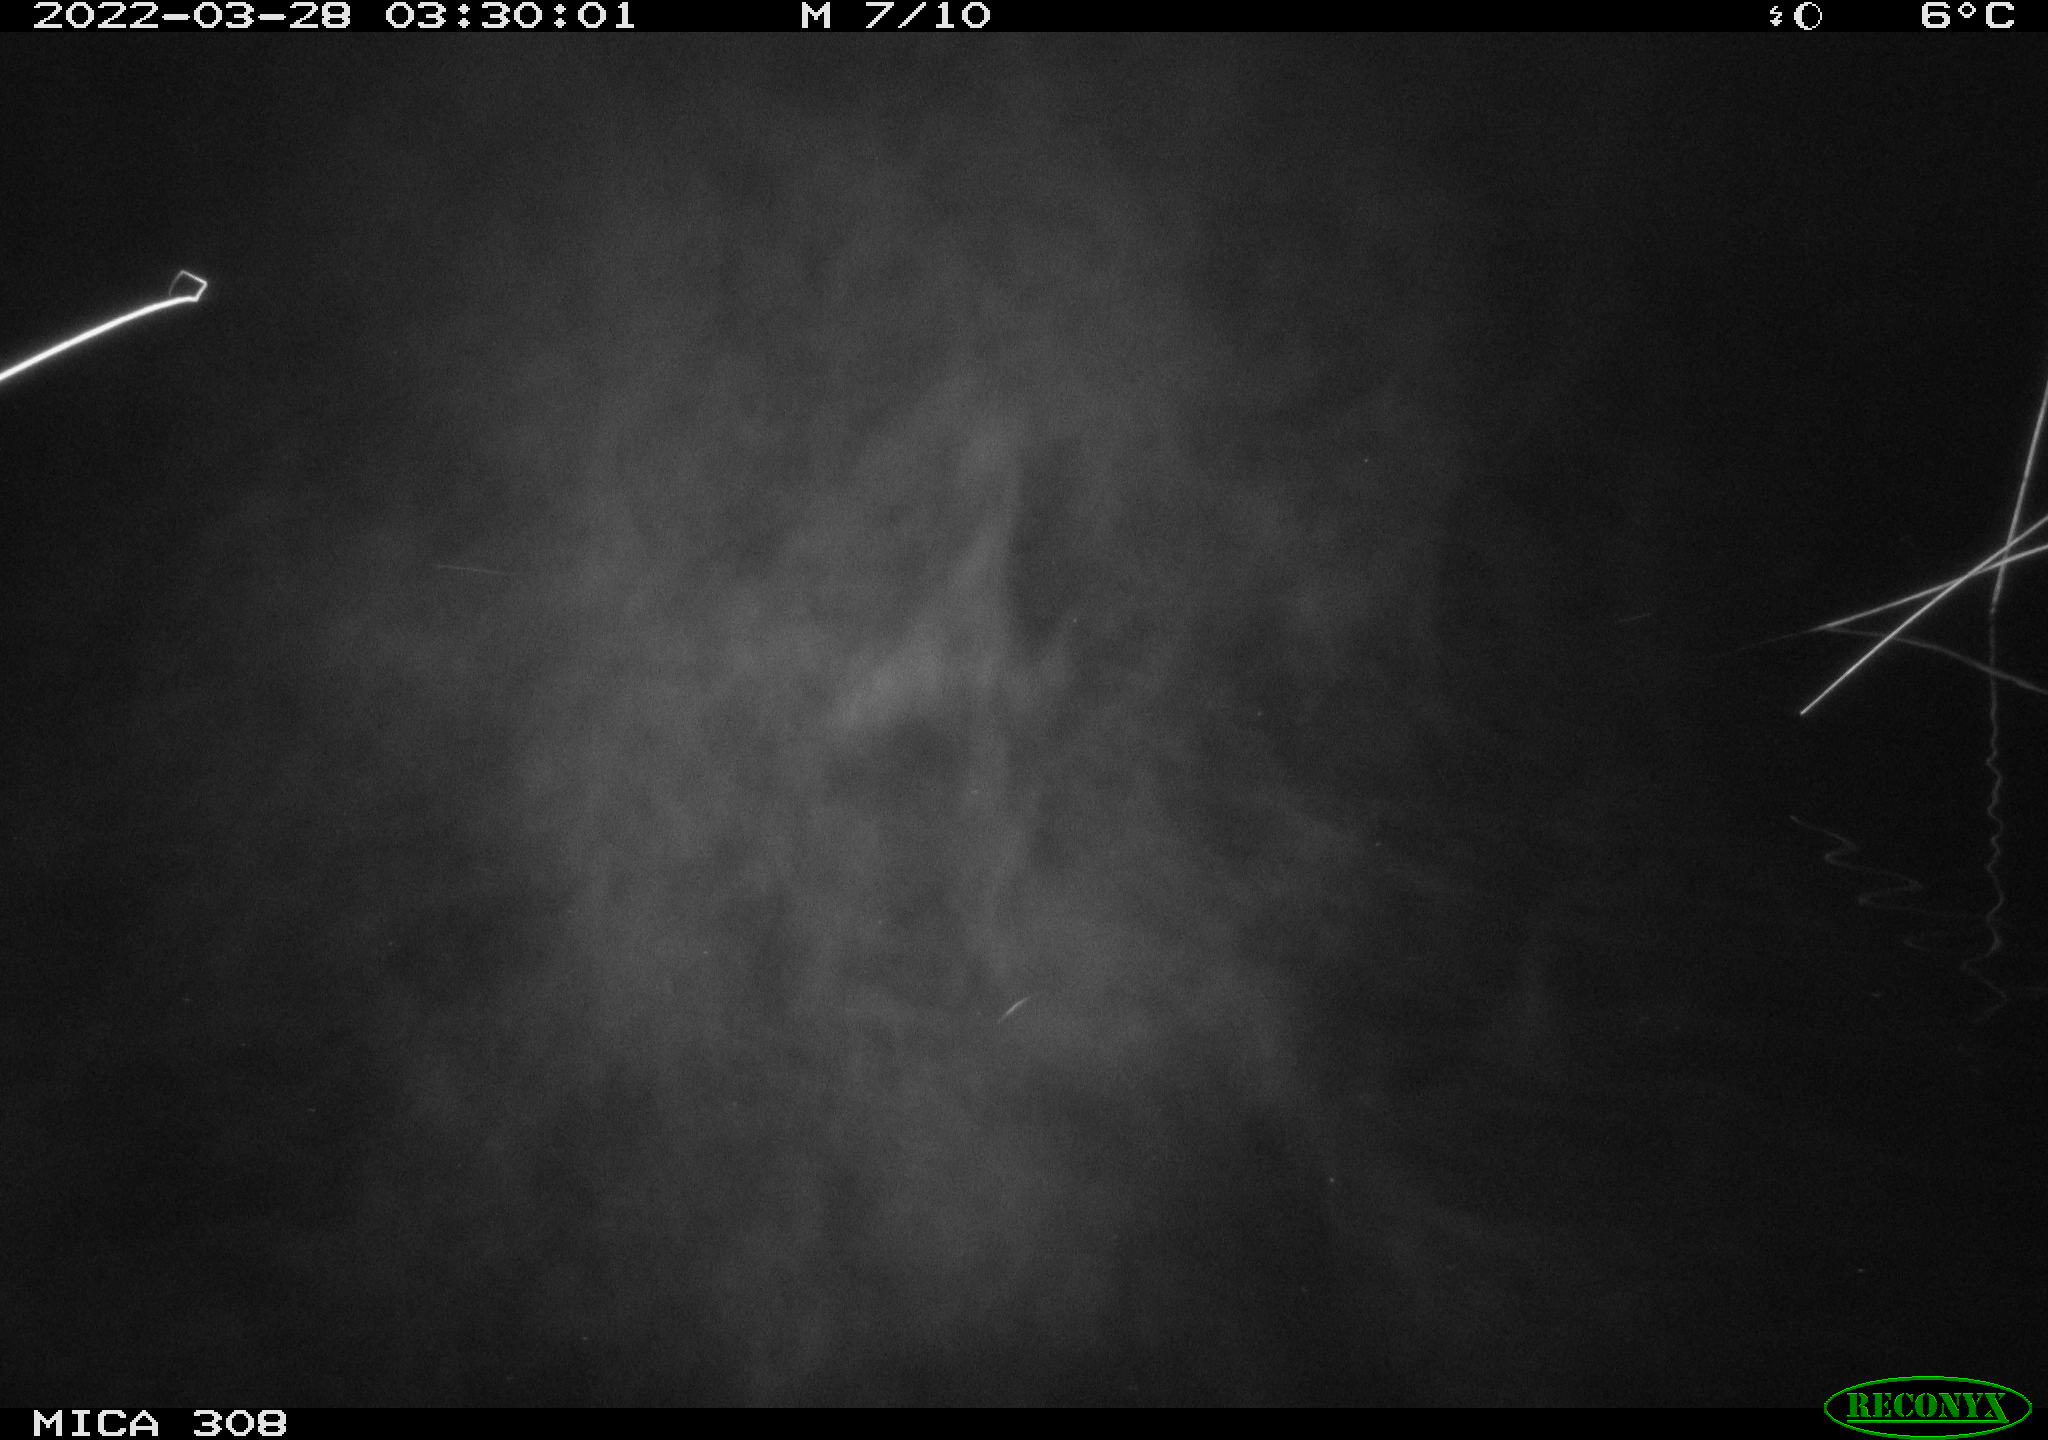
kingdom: Animalia
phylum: Chordata
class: Aves
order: Anseriformes
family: Anatidae
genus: Anas
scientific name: Anas platyrhynchos
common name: Mallard
